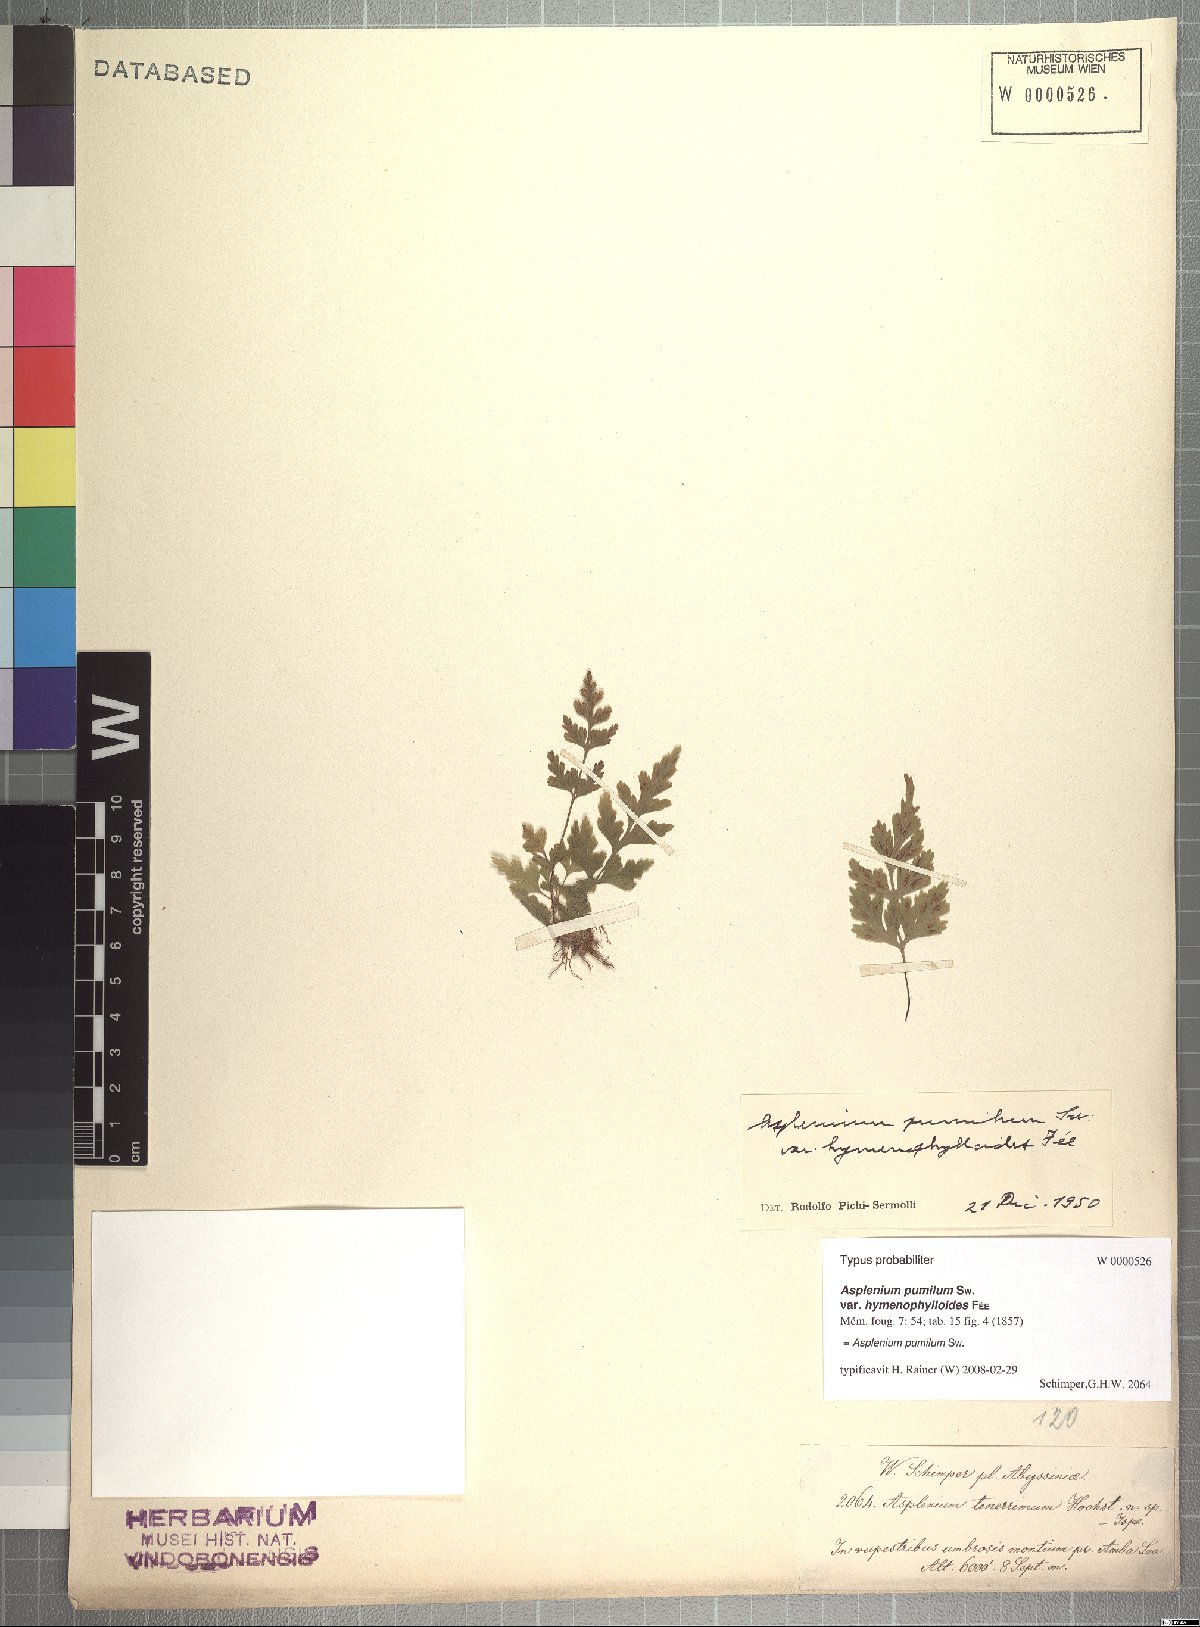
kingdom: Plantae
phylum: Tracheophyta
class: Polypodiopsida
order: Polypodiales
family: Aspleniaceae
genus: Asplenium
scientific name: Asplenium pumilum
